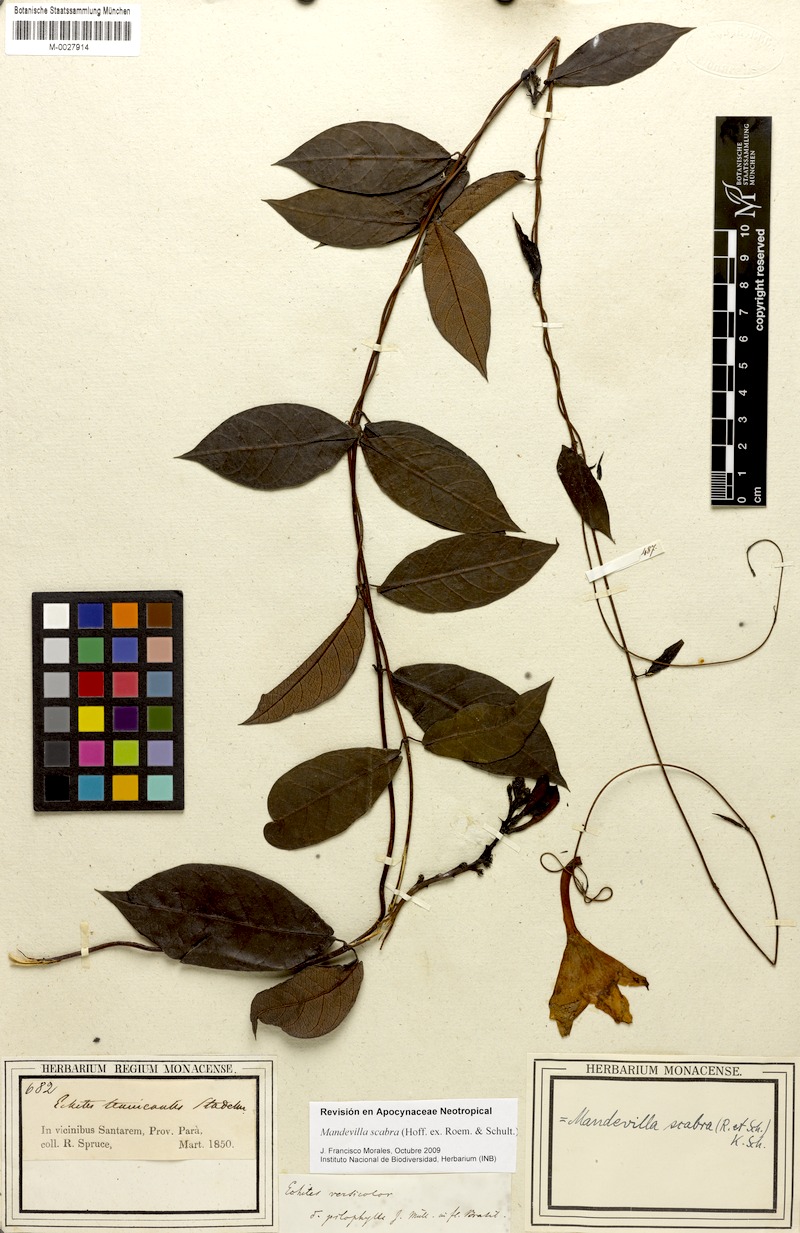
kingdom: Plantae
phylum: Tracheophyta
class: Magnoliopsida
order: Gentianales
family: Apocynaceae
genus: Mandevilla
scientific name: Mandevilla scabra
